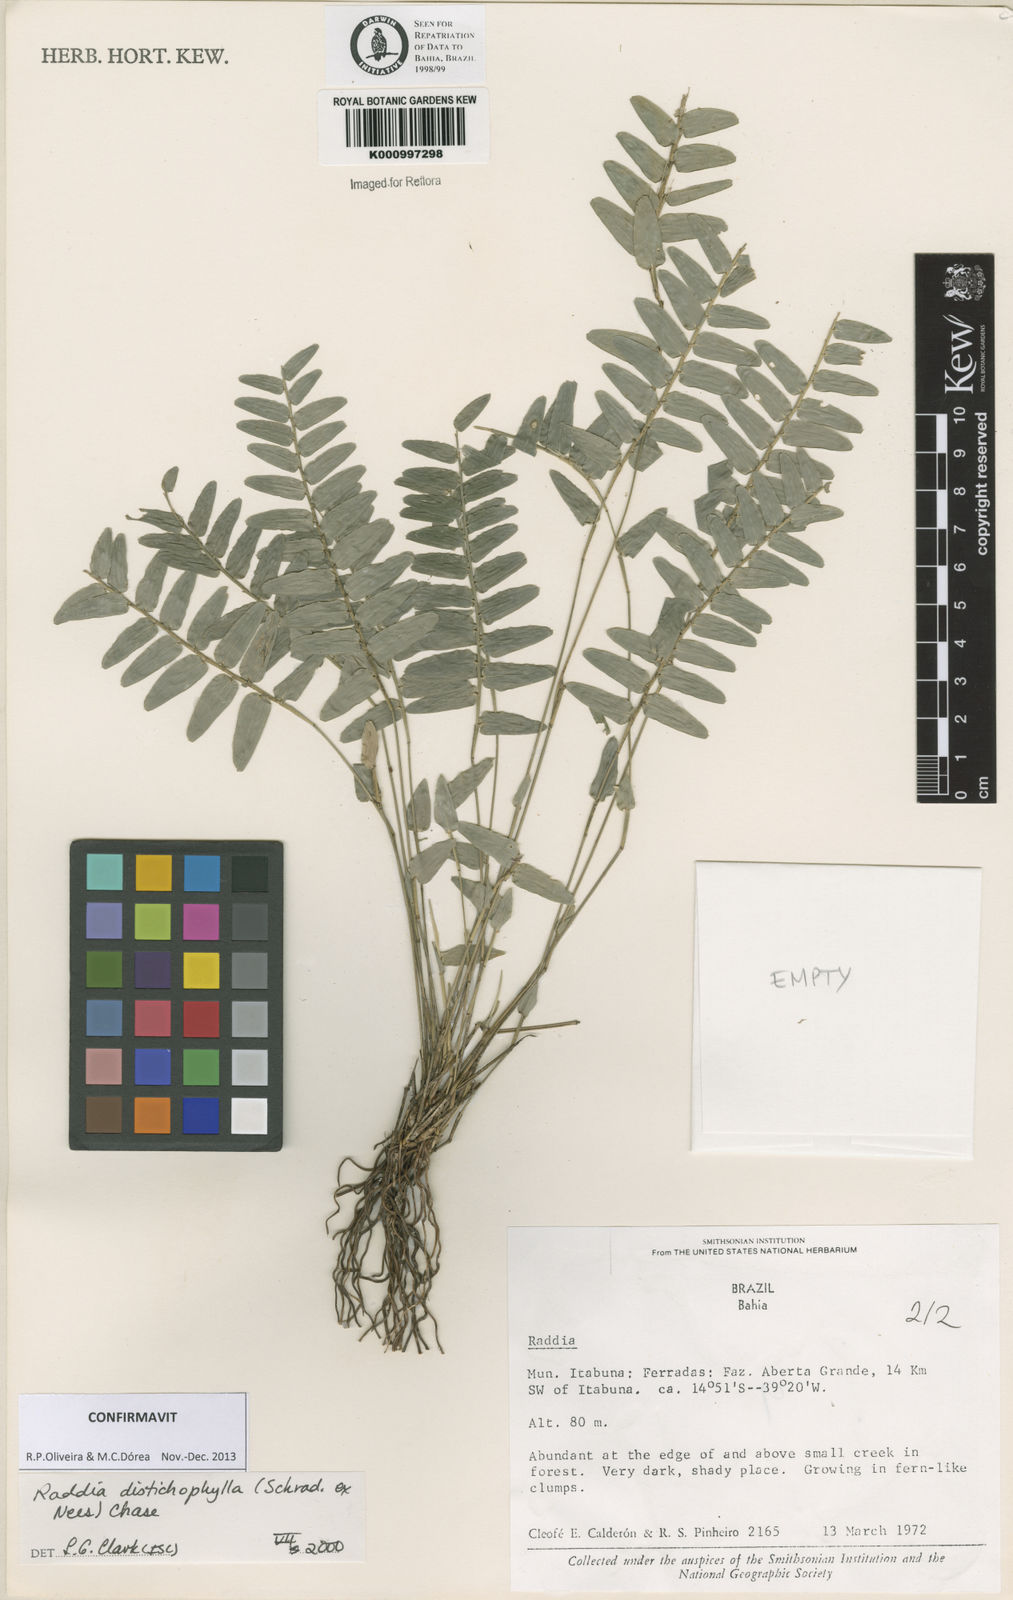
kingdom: Plantae
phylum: Tracheophyta
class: Liliopsida
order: Poales
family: Poaceae
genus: Raddia
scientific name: Raddia distichophylla
